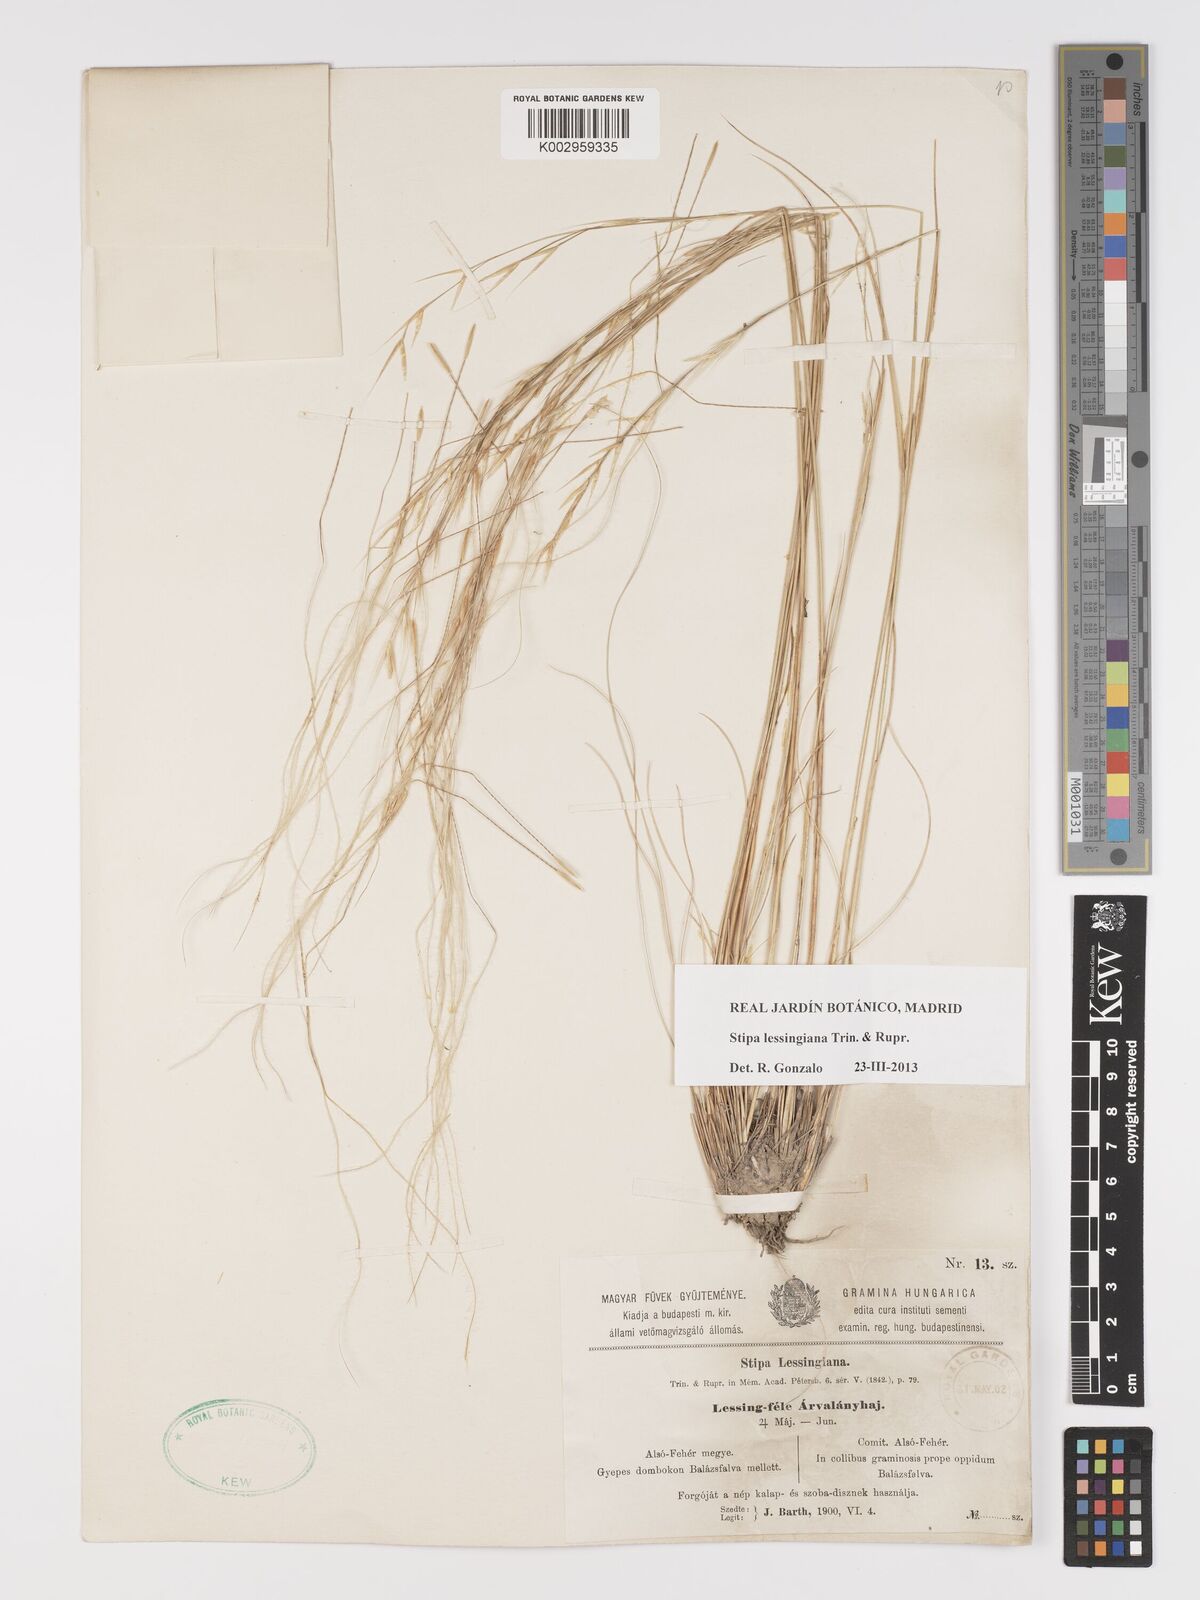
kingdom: Plantae
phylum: Tracheophyta
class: Liliopsida
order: Poales
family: Poaceae
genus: Stipa
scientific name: Stipa lessingiana
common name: Needle grass
